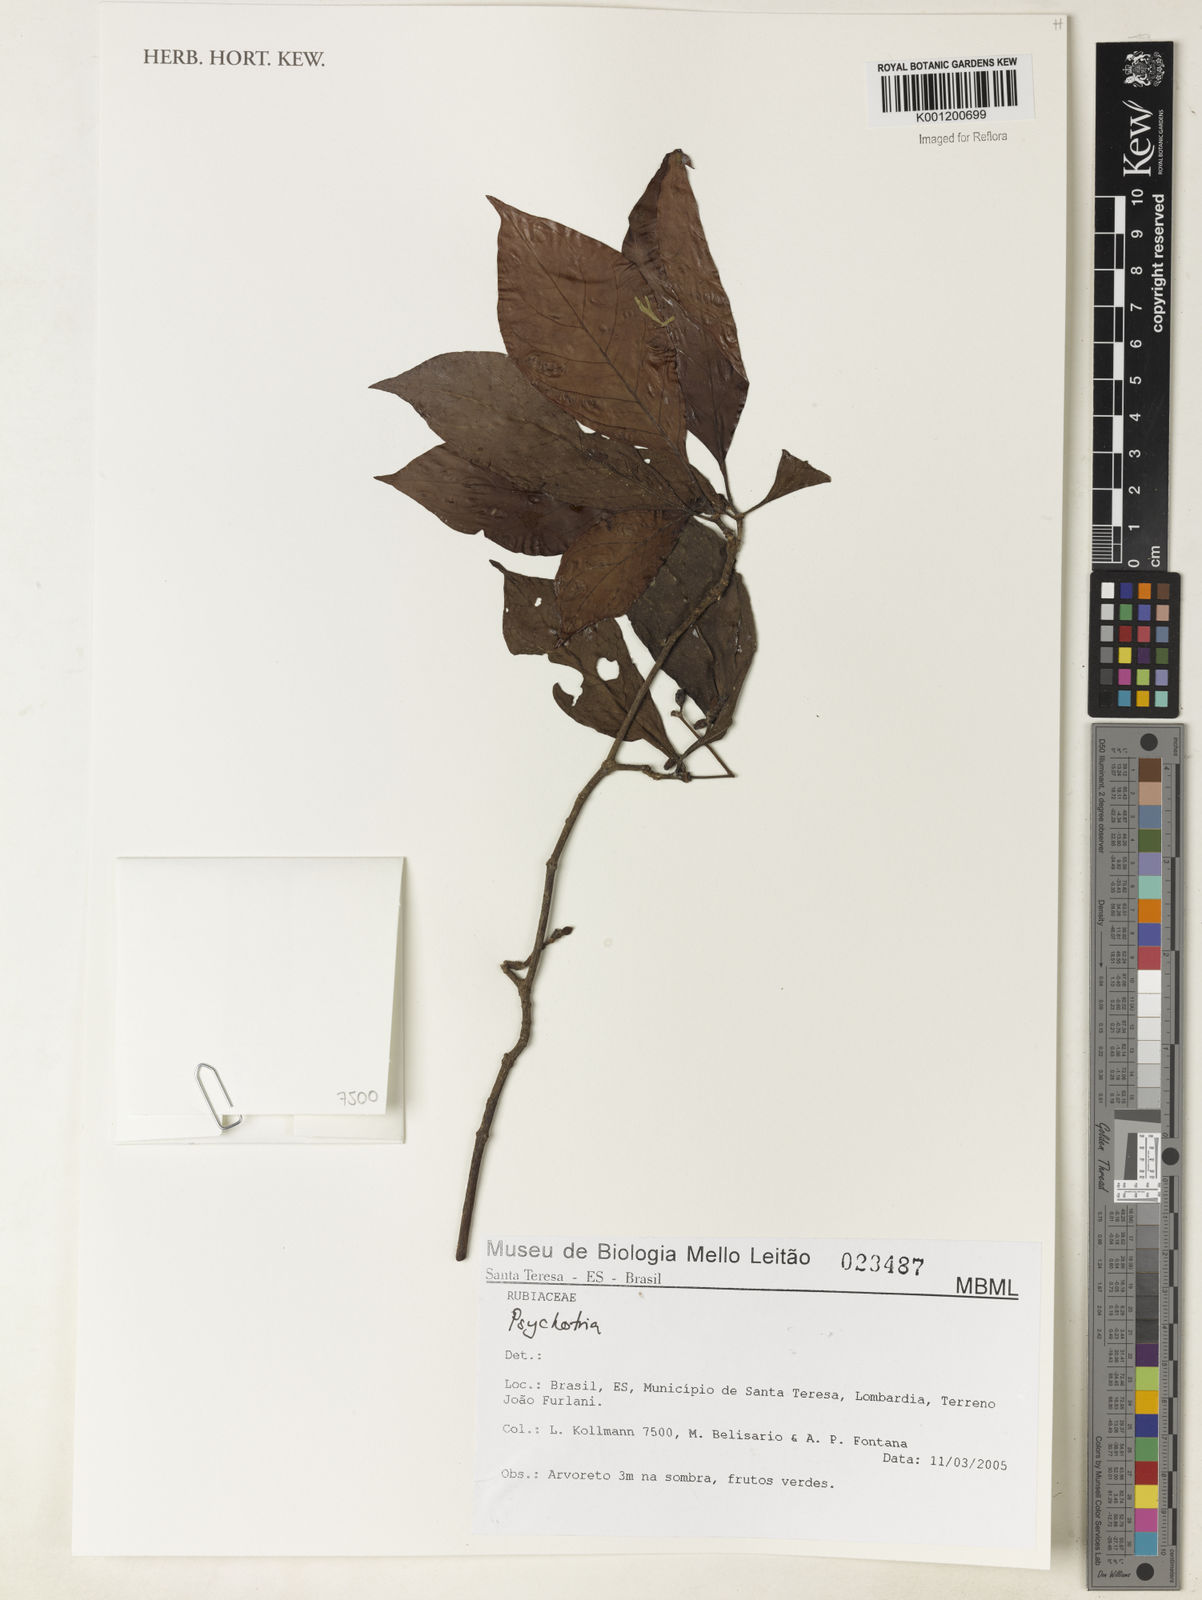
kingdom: Plantae
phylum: Tracheophyta
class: Magnoliopsida
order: Gentianales
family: Rubiaceae
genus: Psychotria
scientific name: Psychotria
